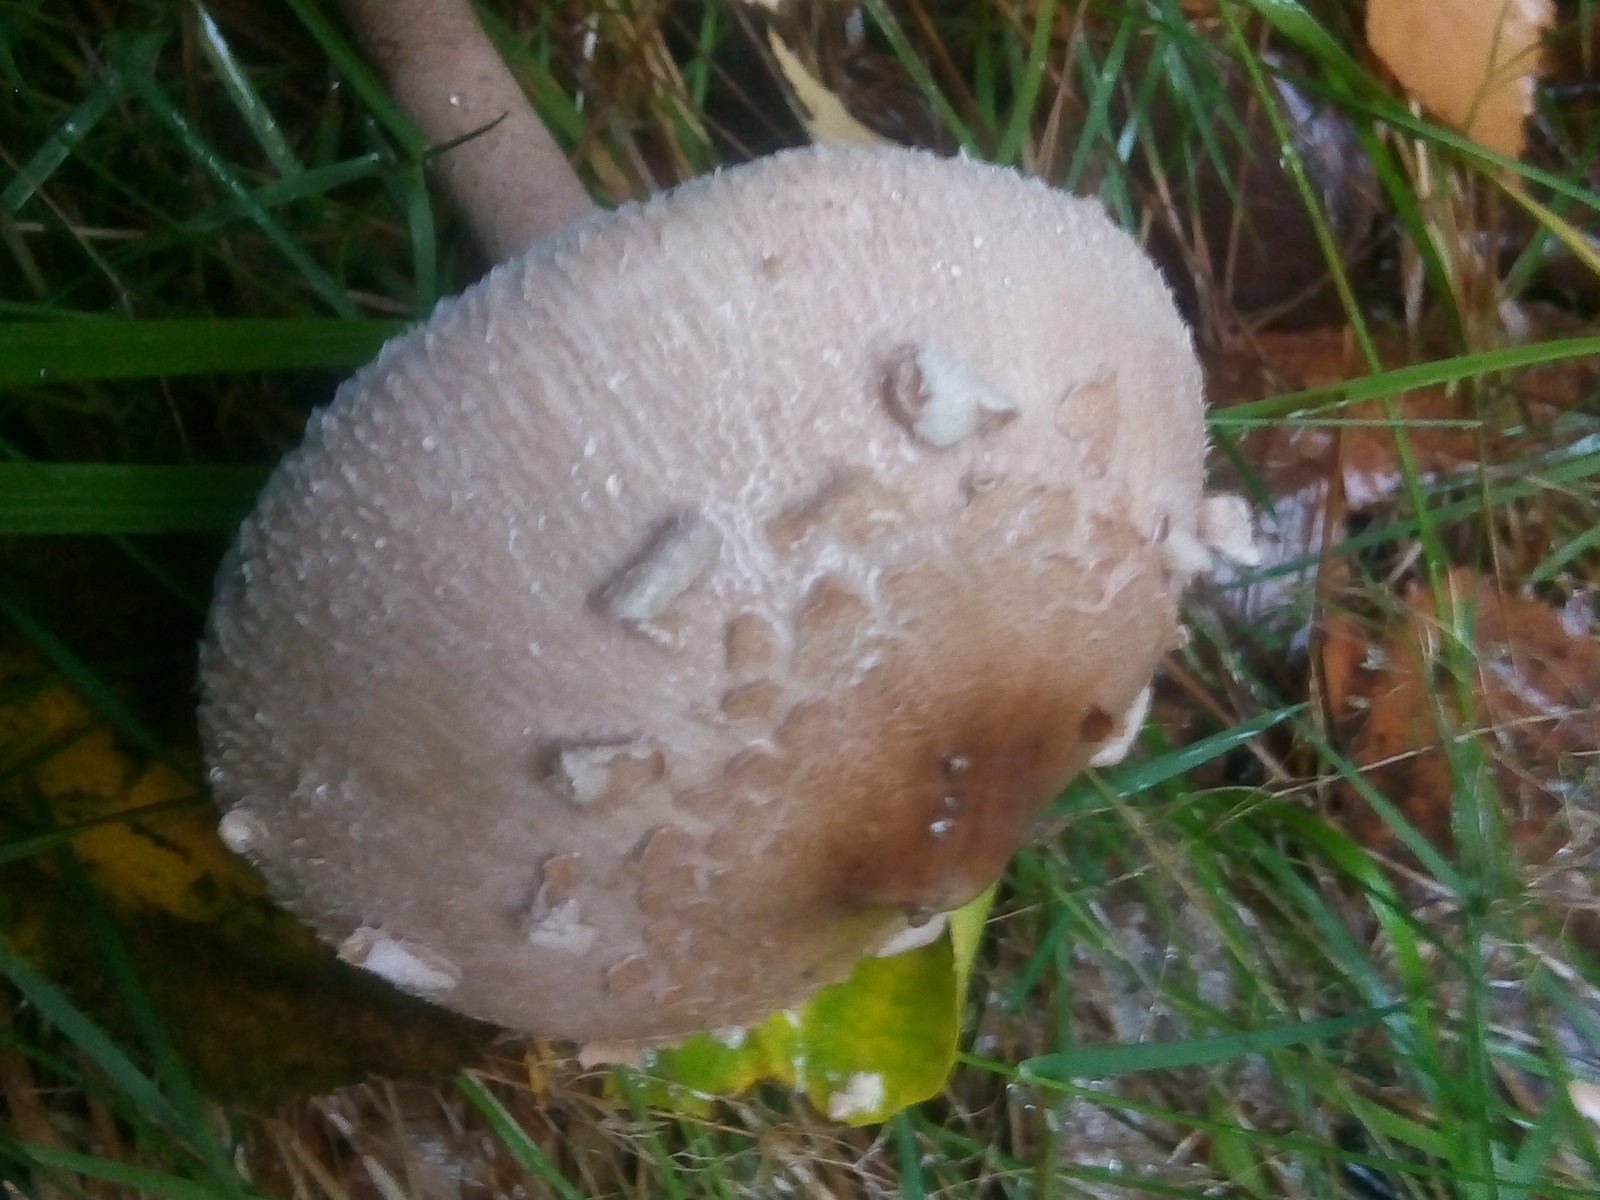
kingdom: Fungi
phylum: Basidiomycota
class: Agaricomycetes
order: Agaricales
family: Agaricaceae
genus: Macrolepiota
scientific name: Macrolepiota mastoidea
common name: puklet kæmpeparasolhat
